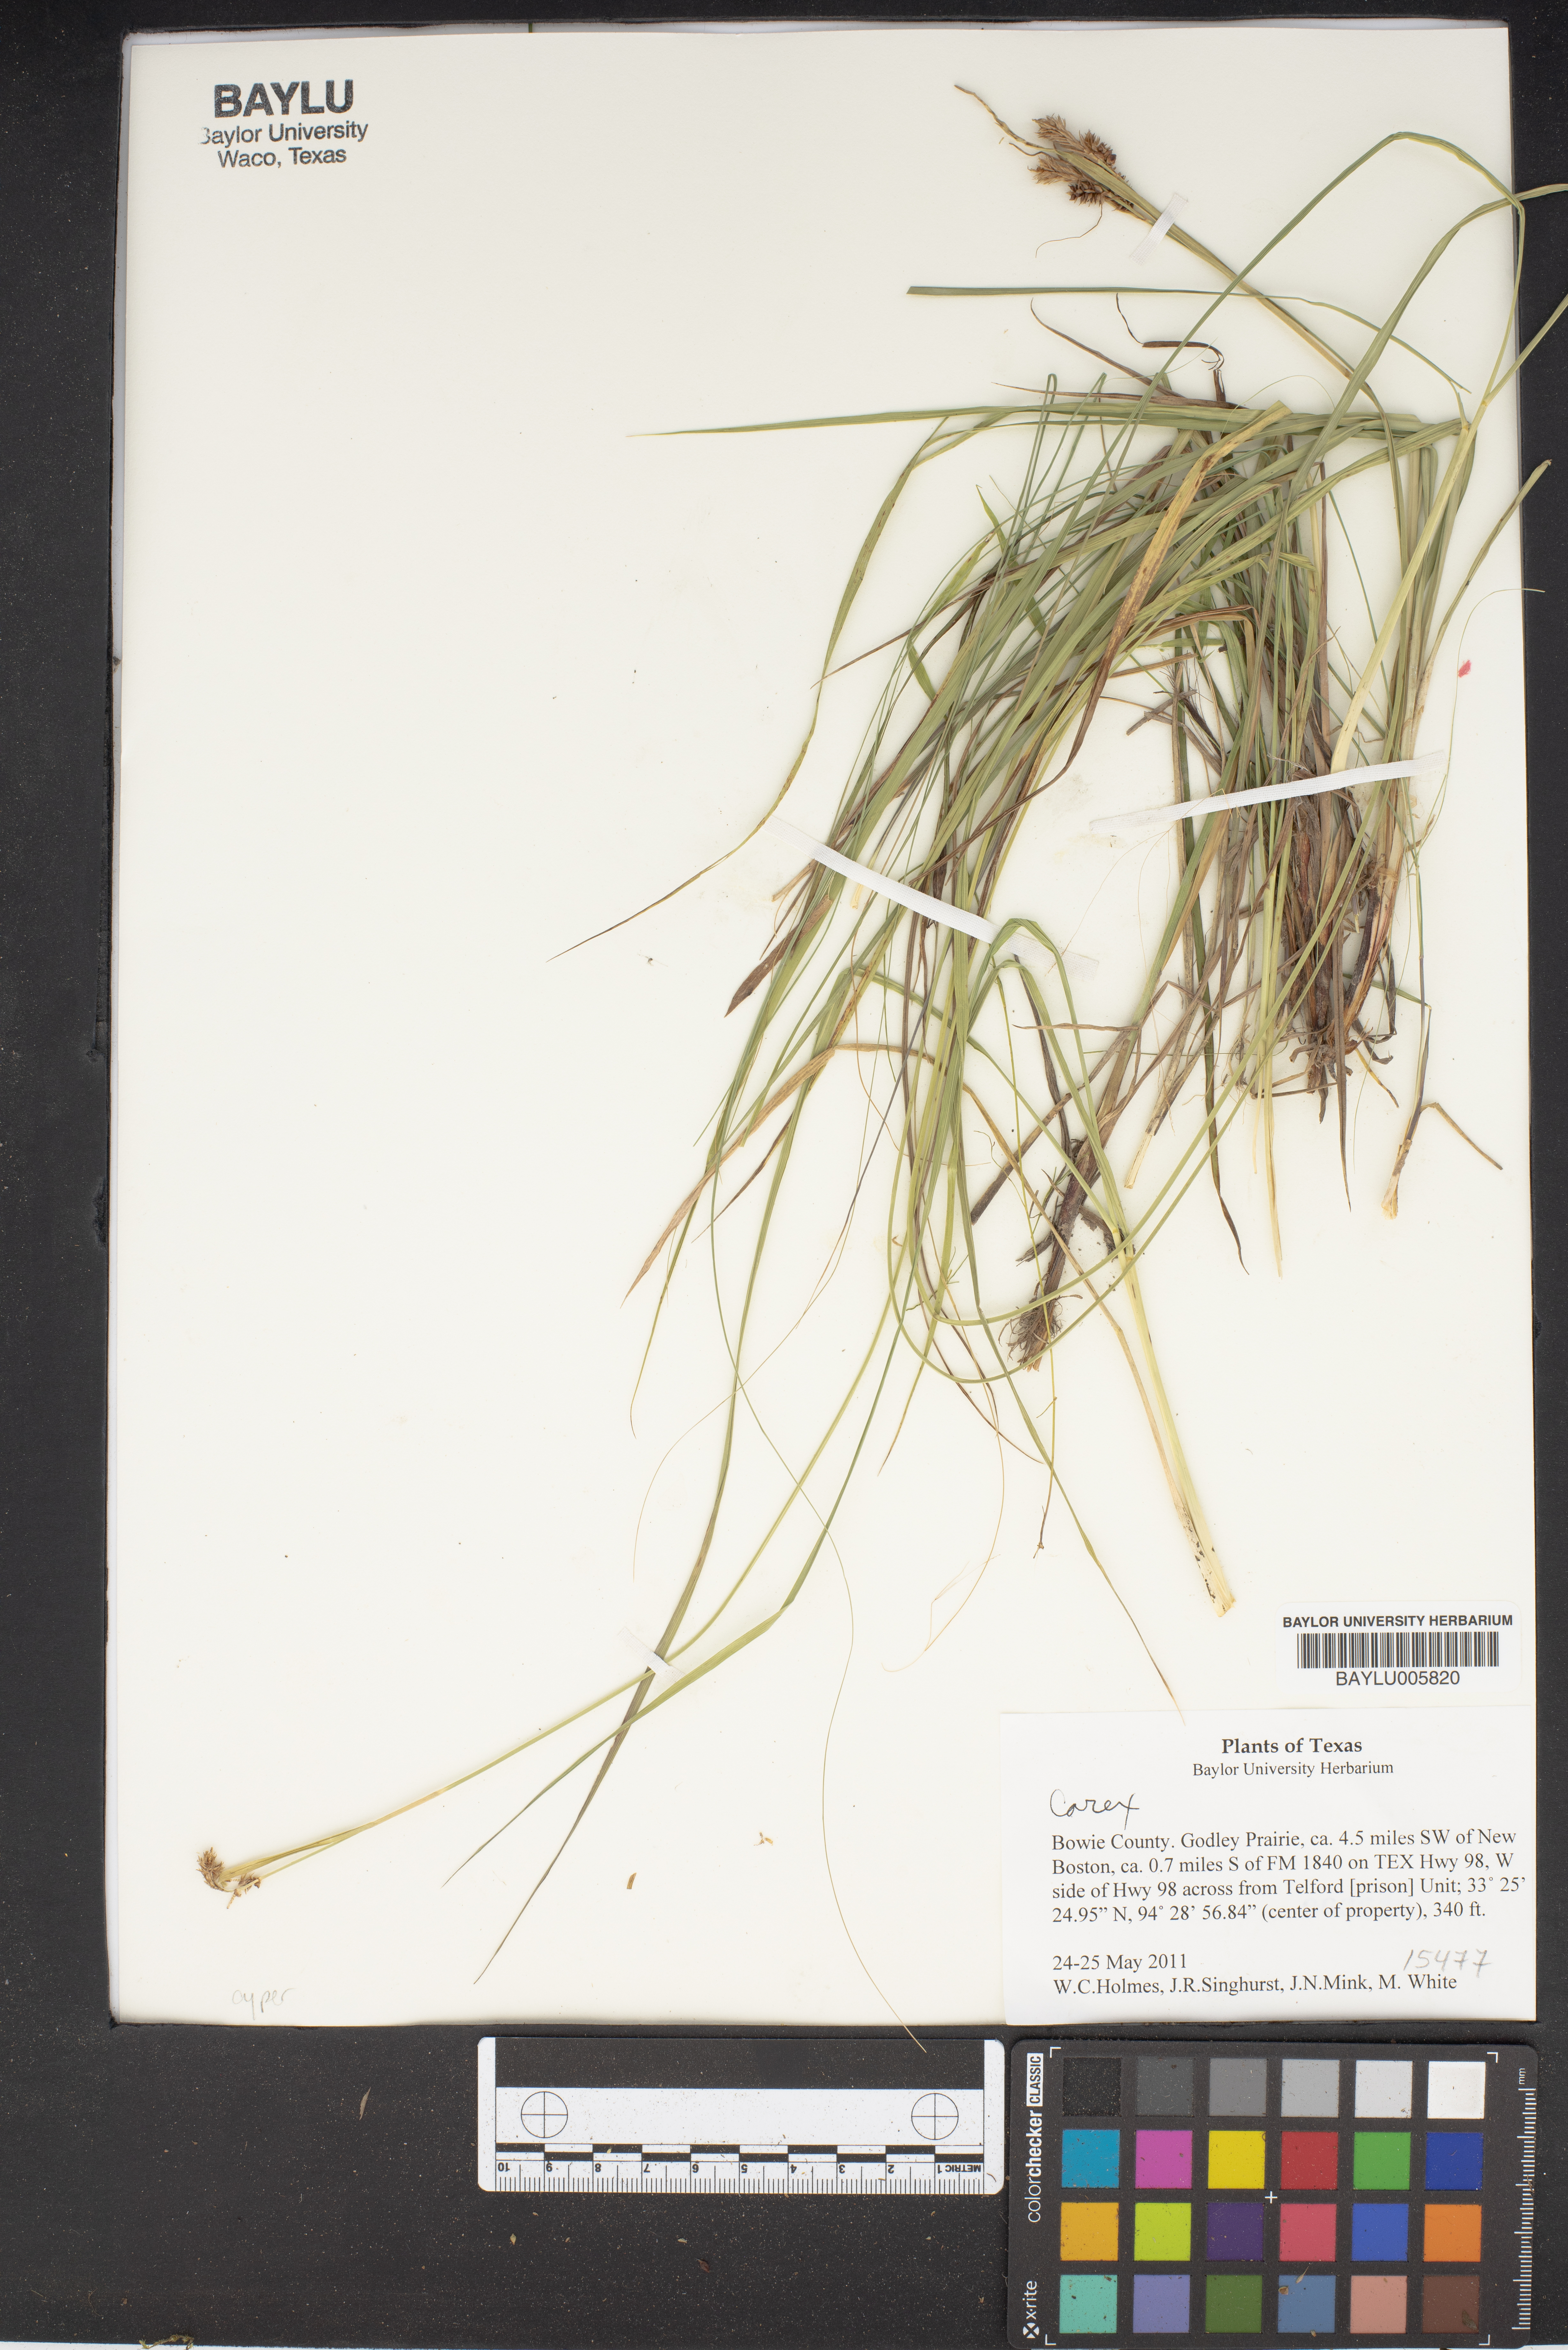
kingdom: Plantae
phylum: Tracheophyta
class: Liliopsida
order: Poales
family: Cyperaceae
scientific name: Cyperaceae
